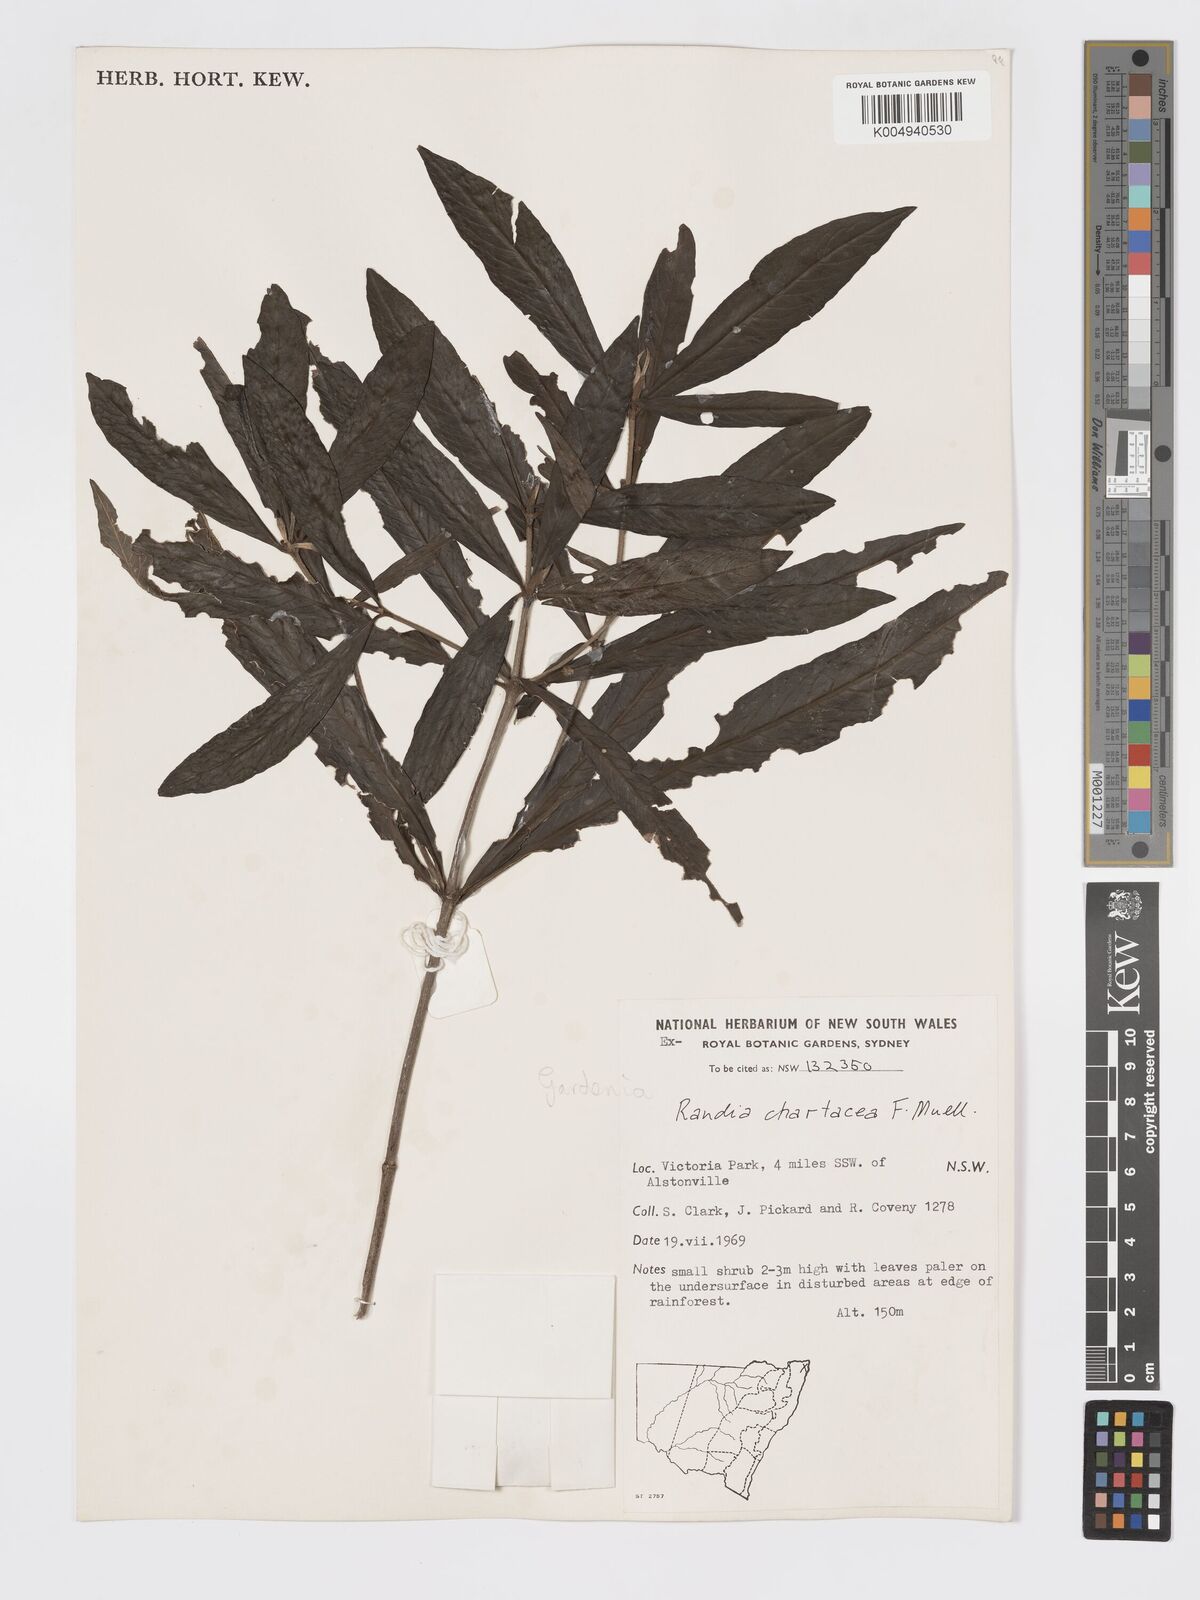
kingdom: Plantae
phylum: Tracheophyta
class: Magnoliopsida
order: Gentianales
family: Rubiaceae
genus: Atractocarpus
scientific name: Atractocarpus chartaceus
